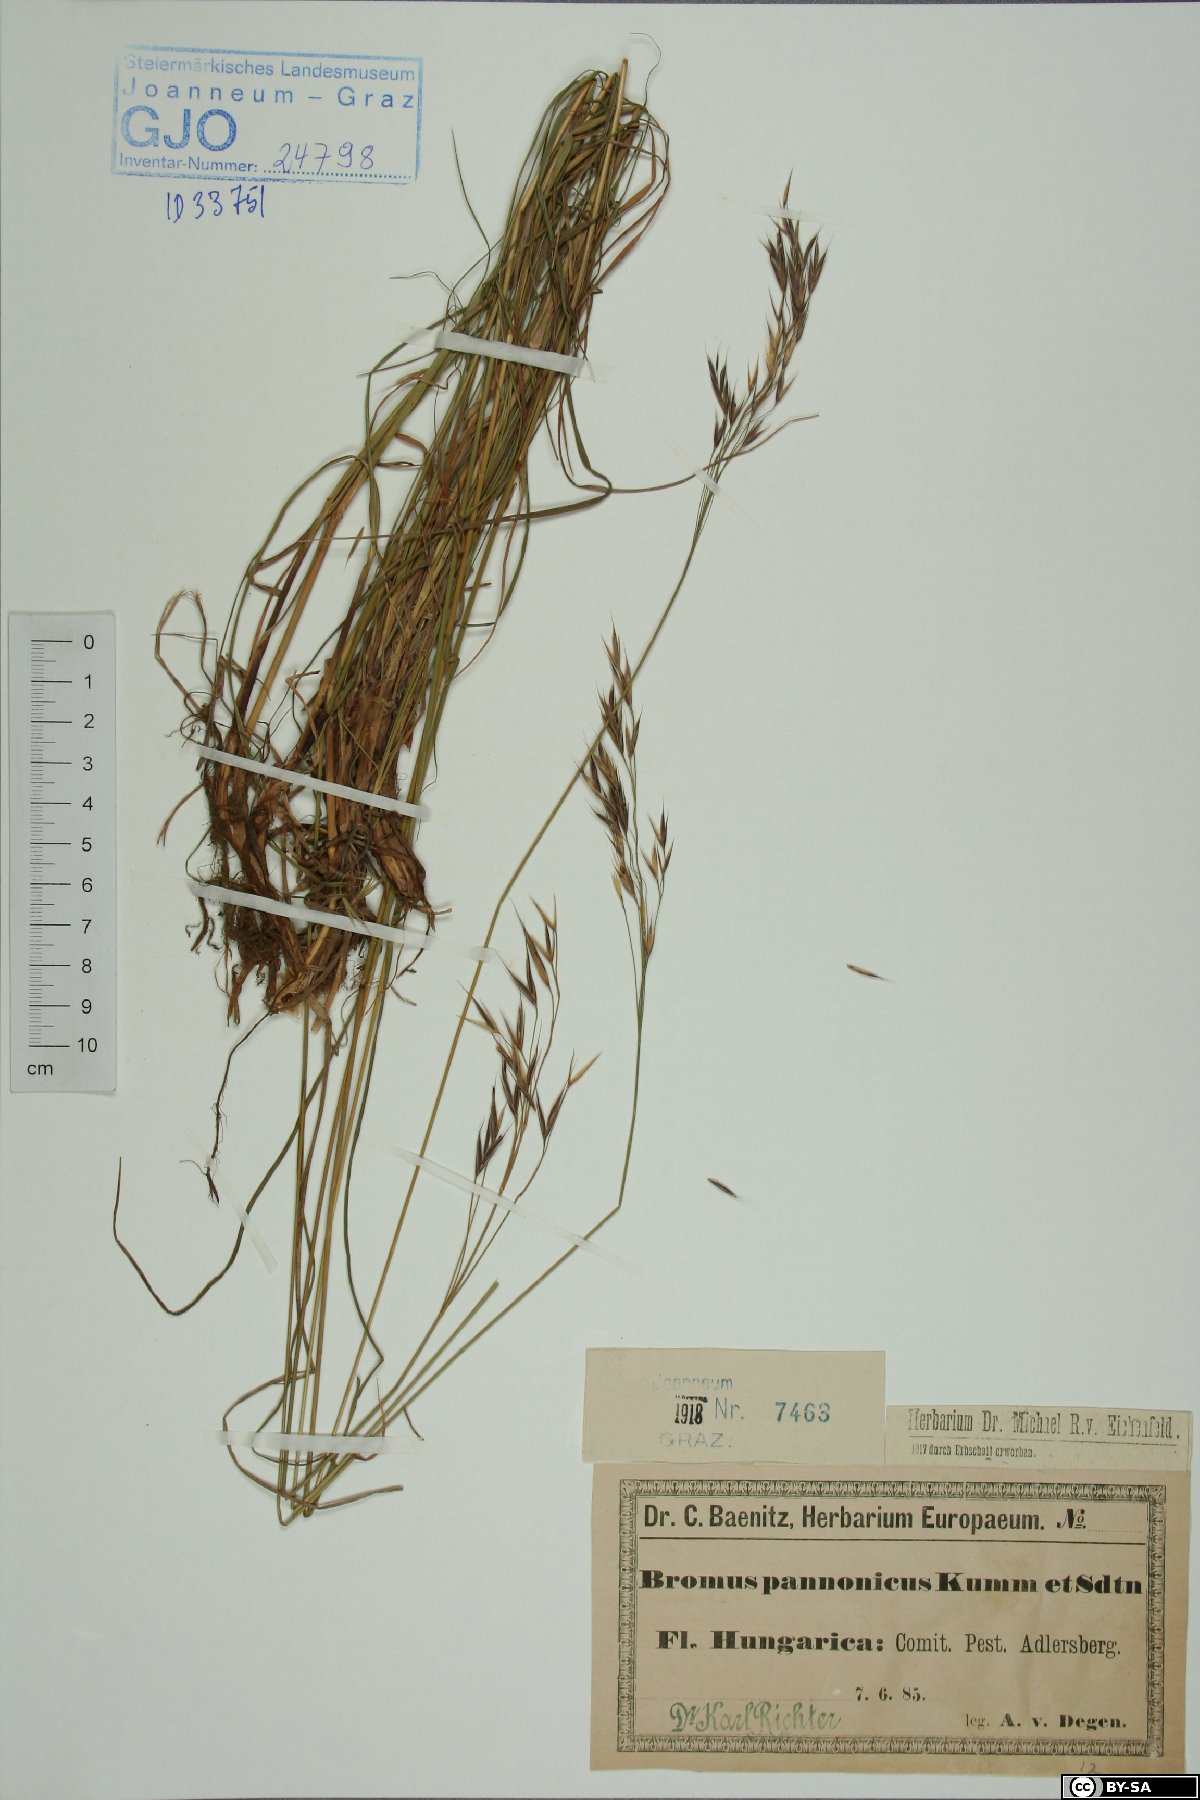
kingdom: Plantae
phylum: Tracheophyta
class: Liliopsida
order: Poales
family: Poaceae
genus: Bromus
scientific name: Bromus pannonicus
